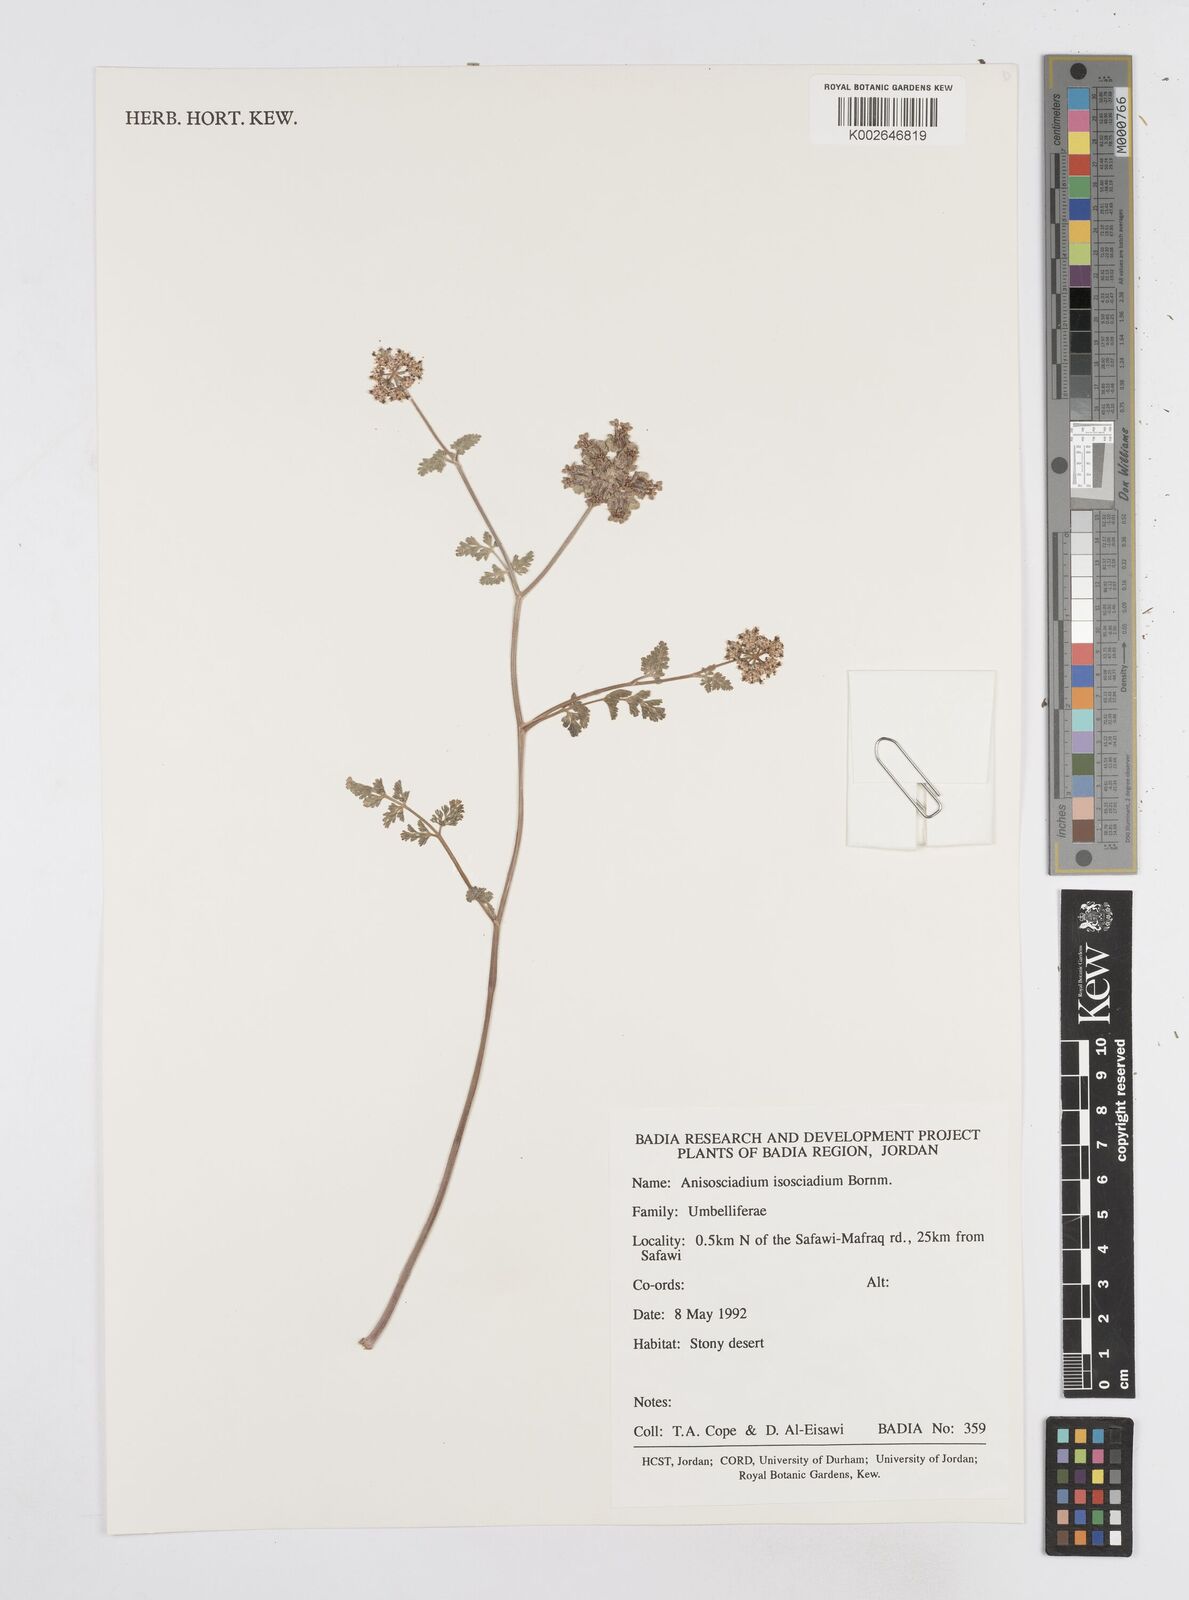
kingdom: Plantae
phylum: Tracheophyta
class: Magnoliopsida
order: Apiales
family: Apiaceae
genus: Anisosciadium
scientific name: Anisosciadium isosciadium
